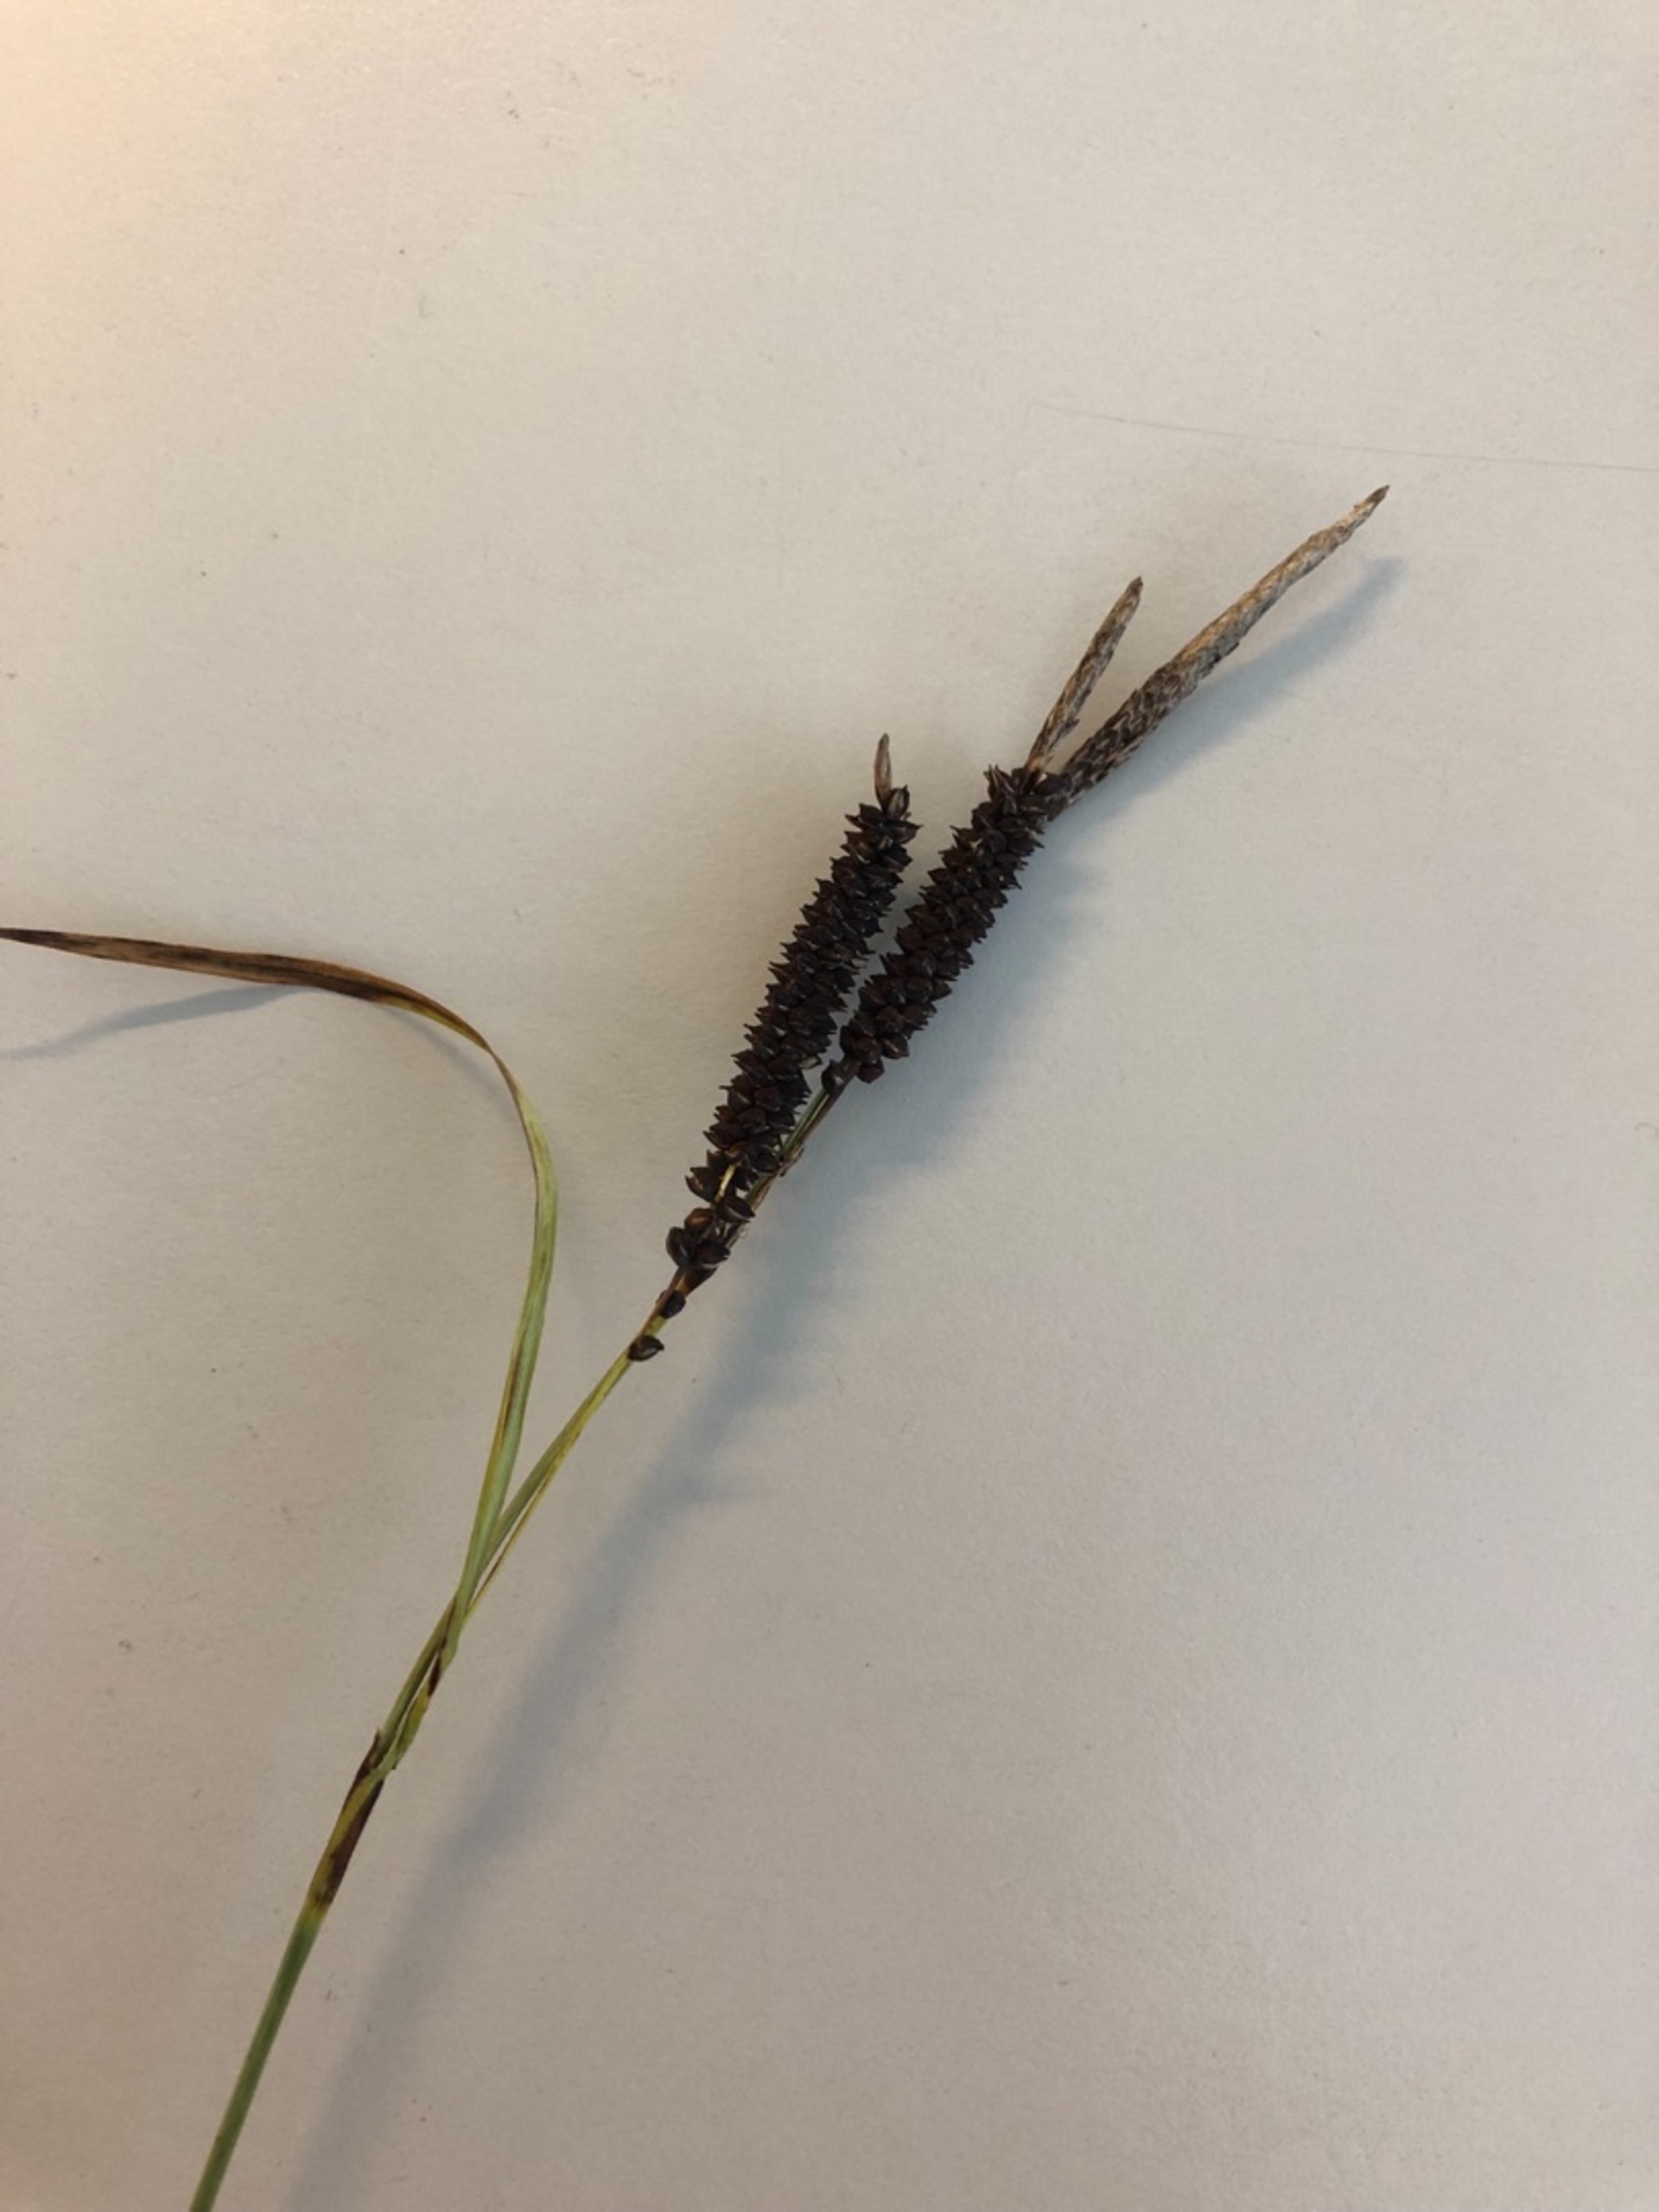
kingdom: Plantae
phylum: Tracheophyta
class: Liliopsida
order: Poales
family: Cyperaceae
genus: Carex
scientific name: Carex flacca
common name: Blågrøn star
